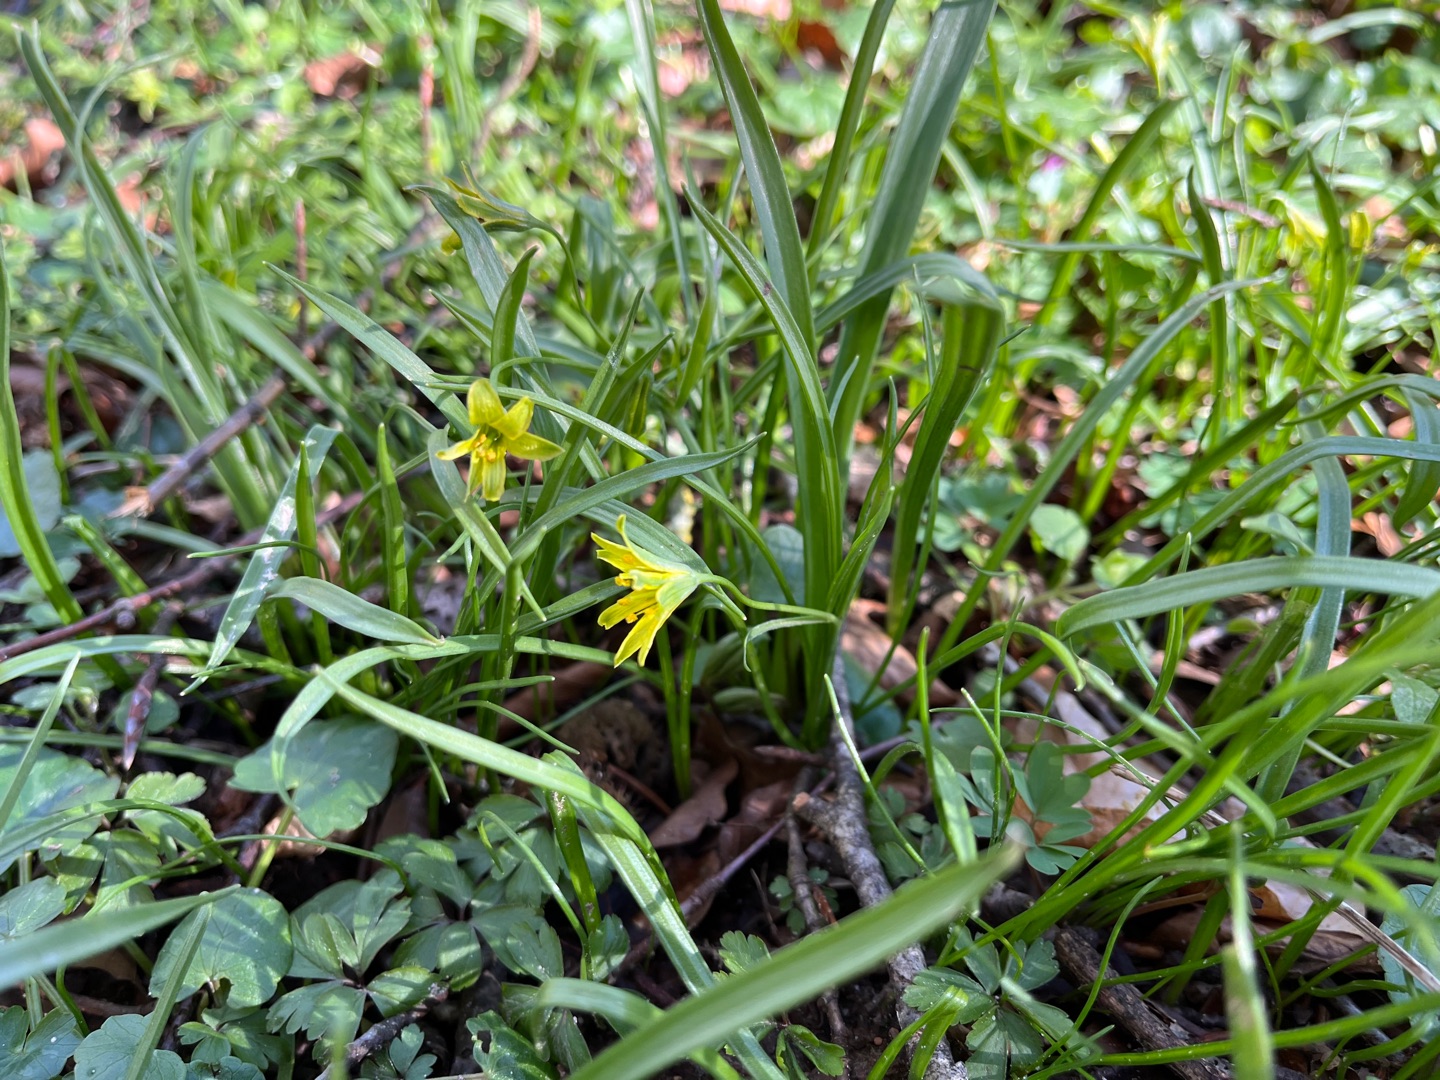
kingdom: Plantae
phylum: Tracheophyta
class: Liliopsida
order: Liliales
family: Liliaceae
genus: Gagea
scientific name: Gagea lutea
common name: Almindelig guldstjerne
